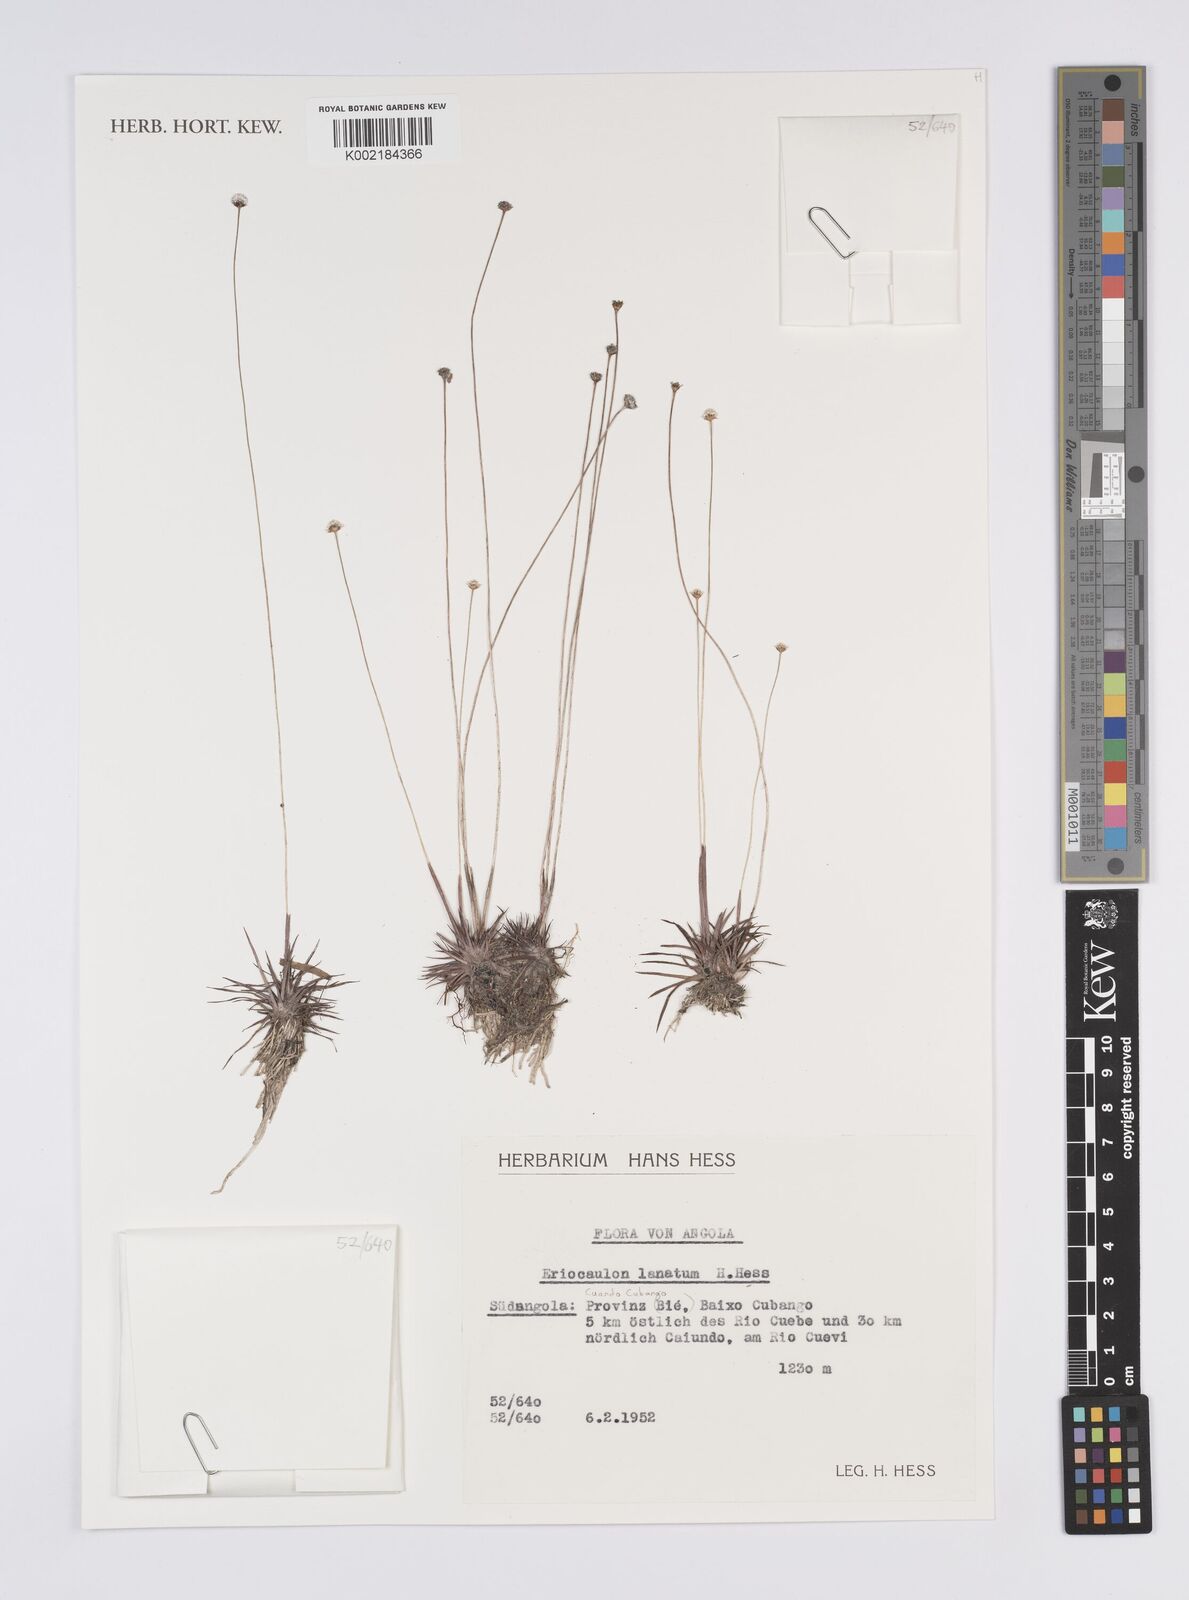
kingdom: Plantae
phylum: Tracheophyta
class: Liliopsida
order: Poales
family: Eriocaulaceae
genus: Eriocaulon
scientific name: Eriocaulon lanatum
